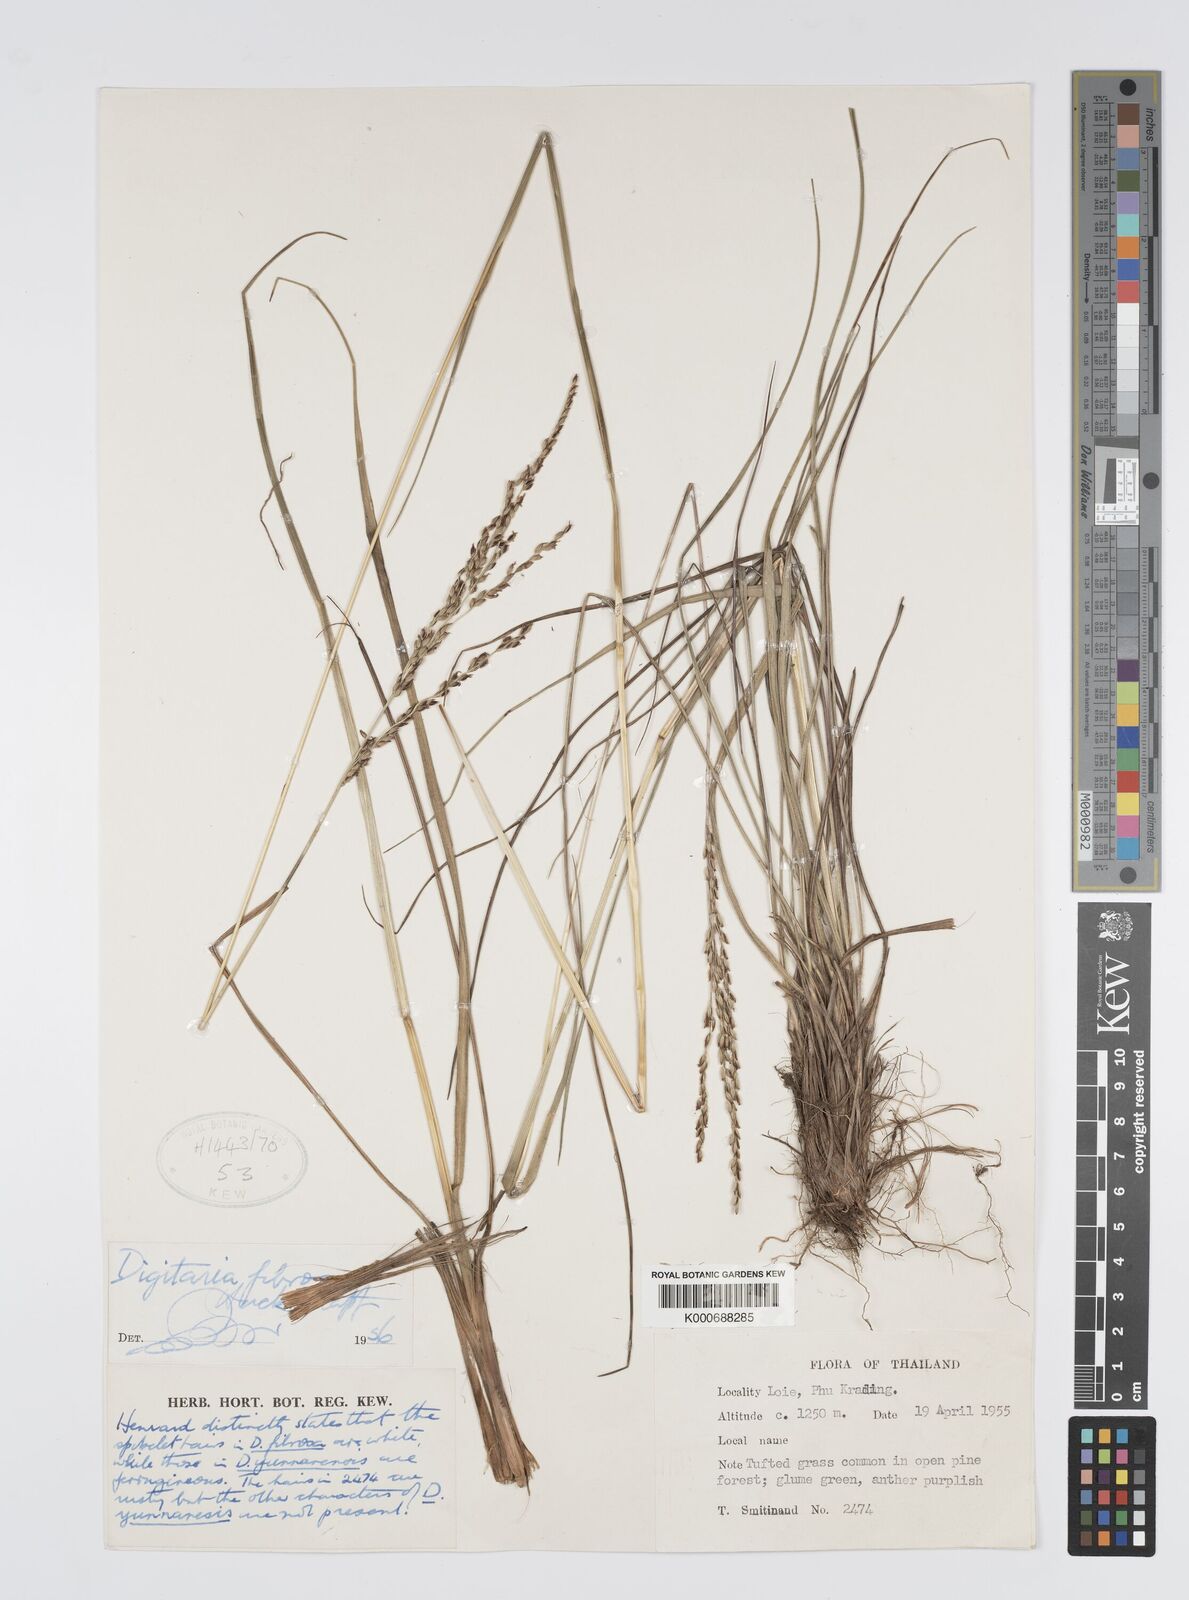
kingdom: Plantae
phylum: Tracheophyta
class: Liliopsida
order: Poales
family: Poaceae
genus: Digitaria
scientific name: Digitaria setifolia
